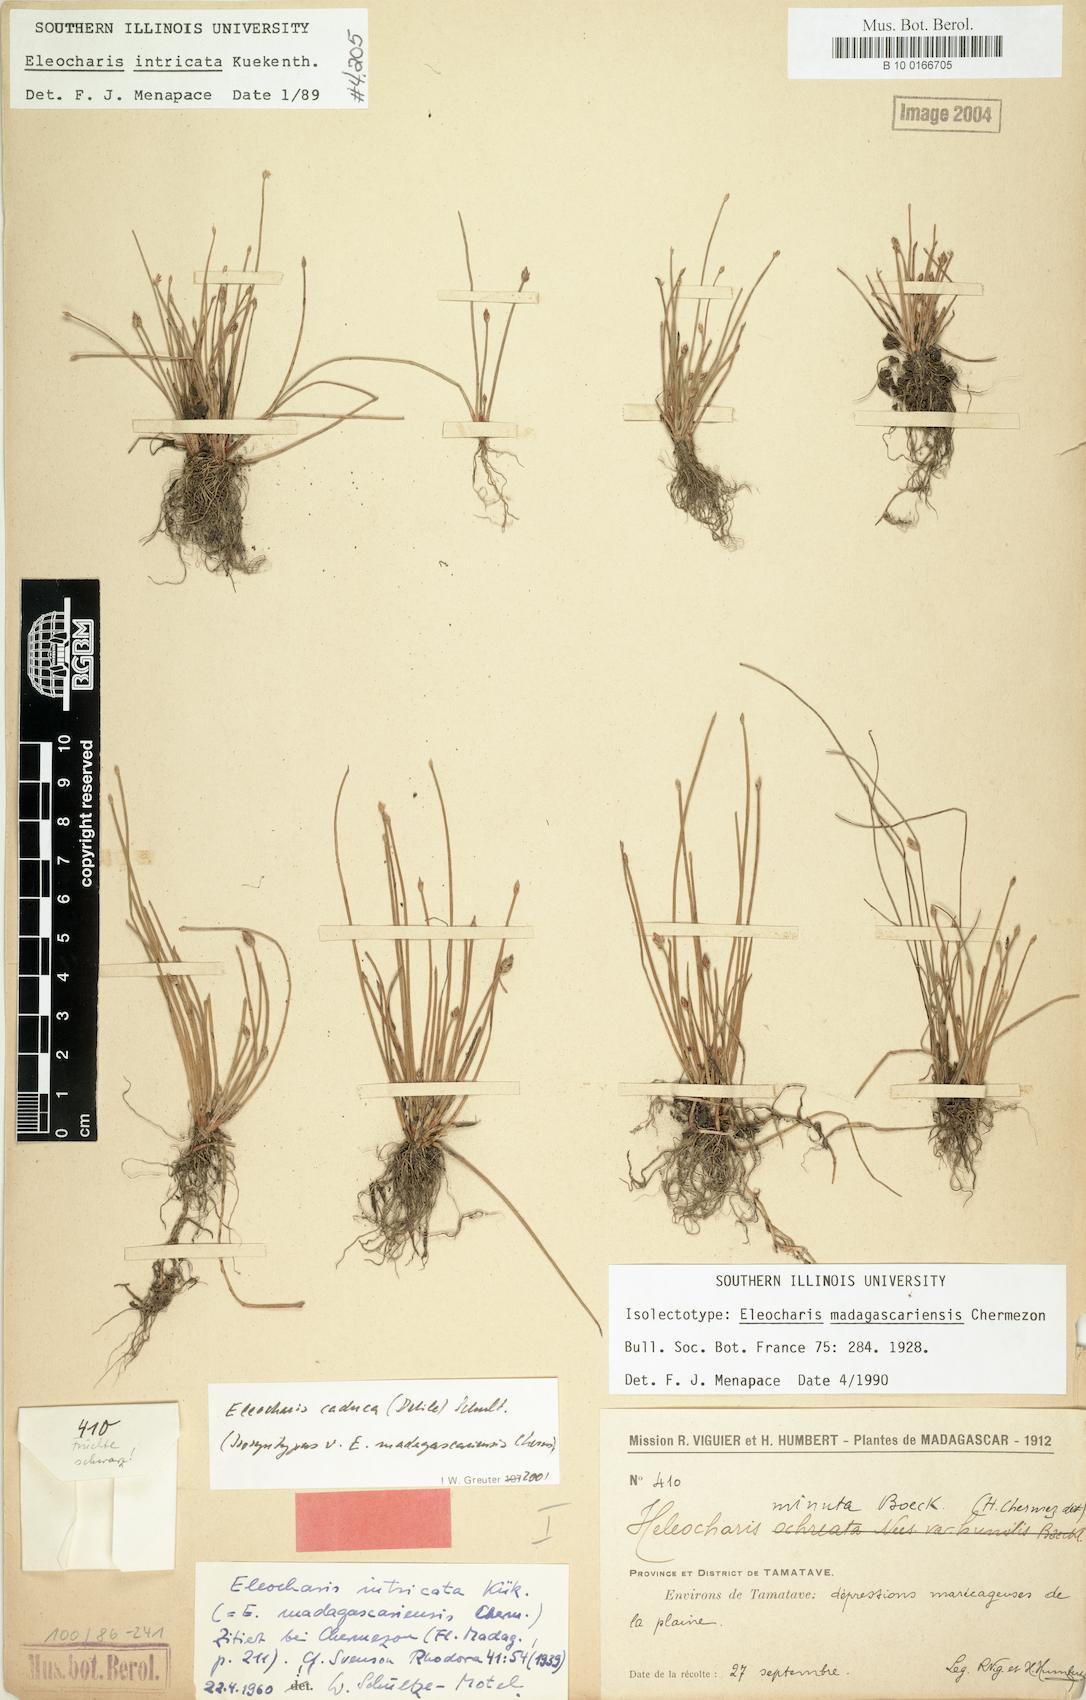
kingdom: Plantae
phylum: Tracheophyta
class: Liliopsida
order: Poales
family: Cyperaceae
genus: Eleocharis
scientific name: Eleocharis caduca
